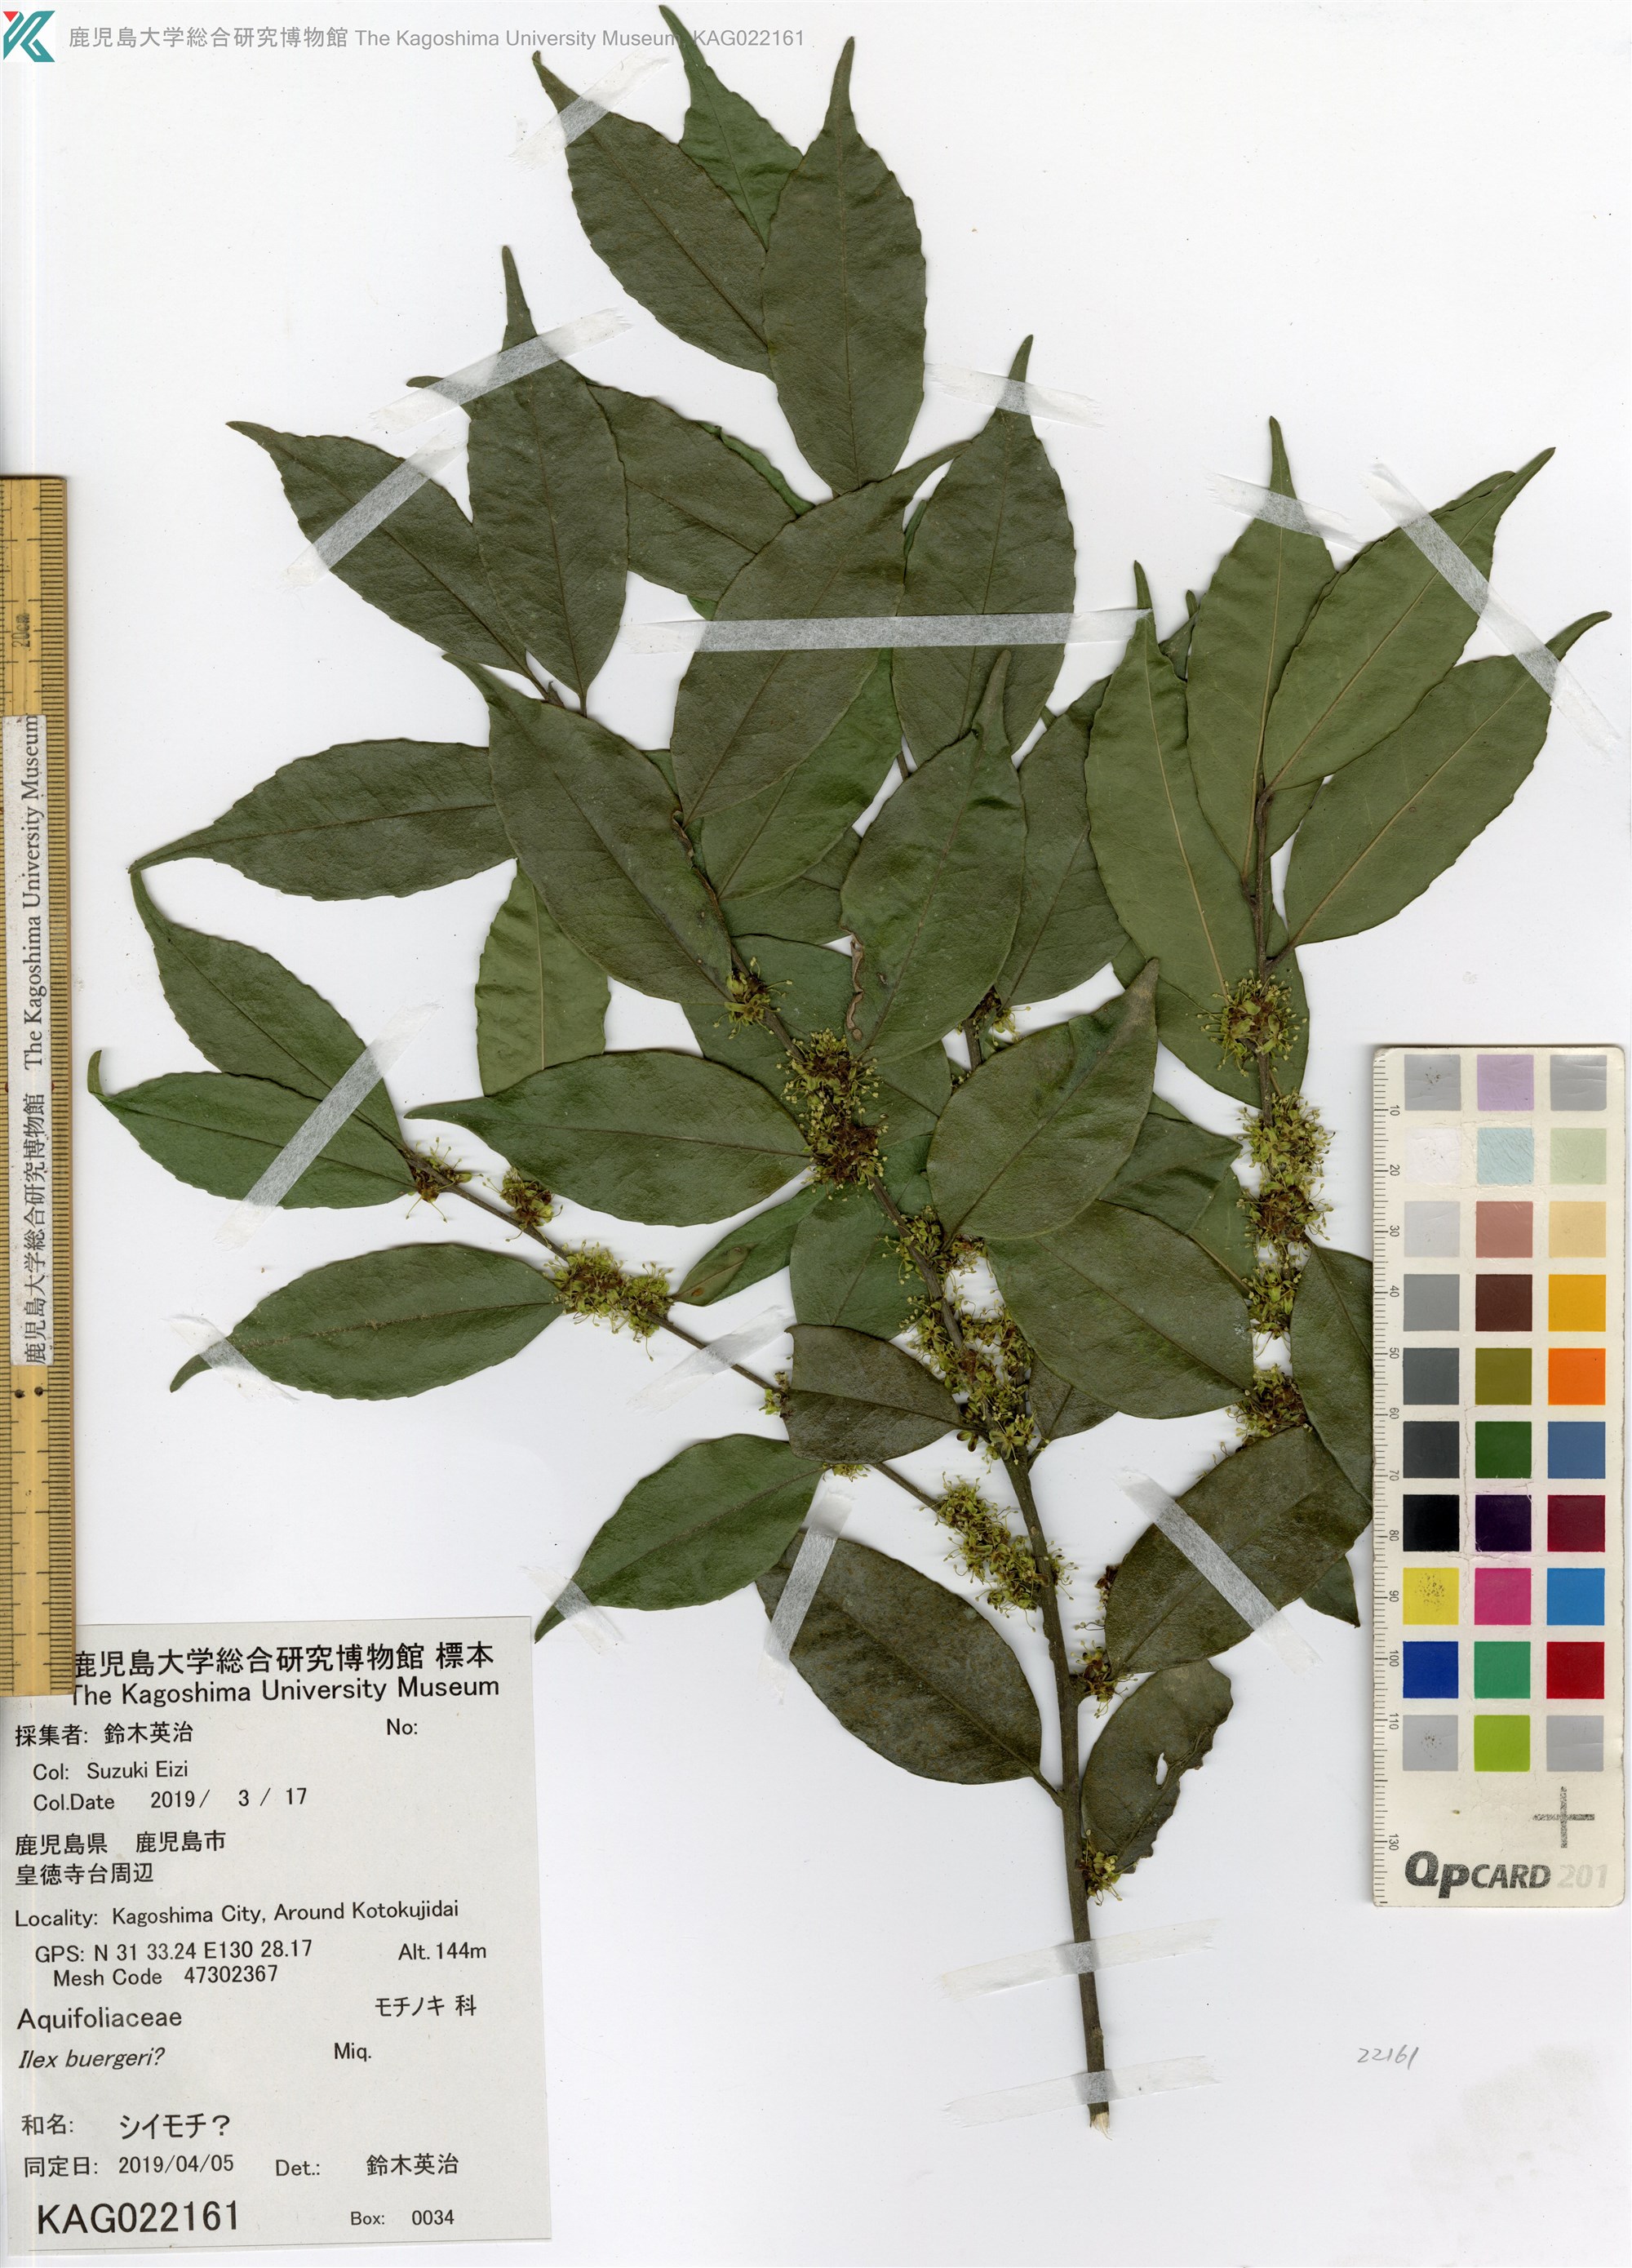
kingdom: Plantae
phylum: Tracheophyta
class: Magnoliopsida
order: Aquifoliales
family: Aquifoliaceae
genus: Ilex
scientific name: Ilex buergeri
